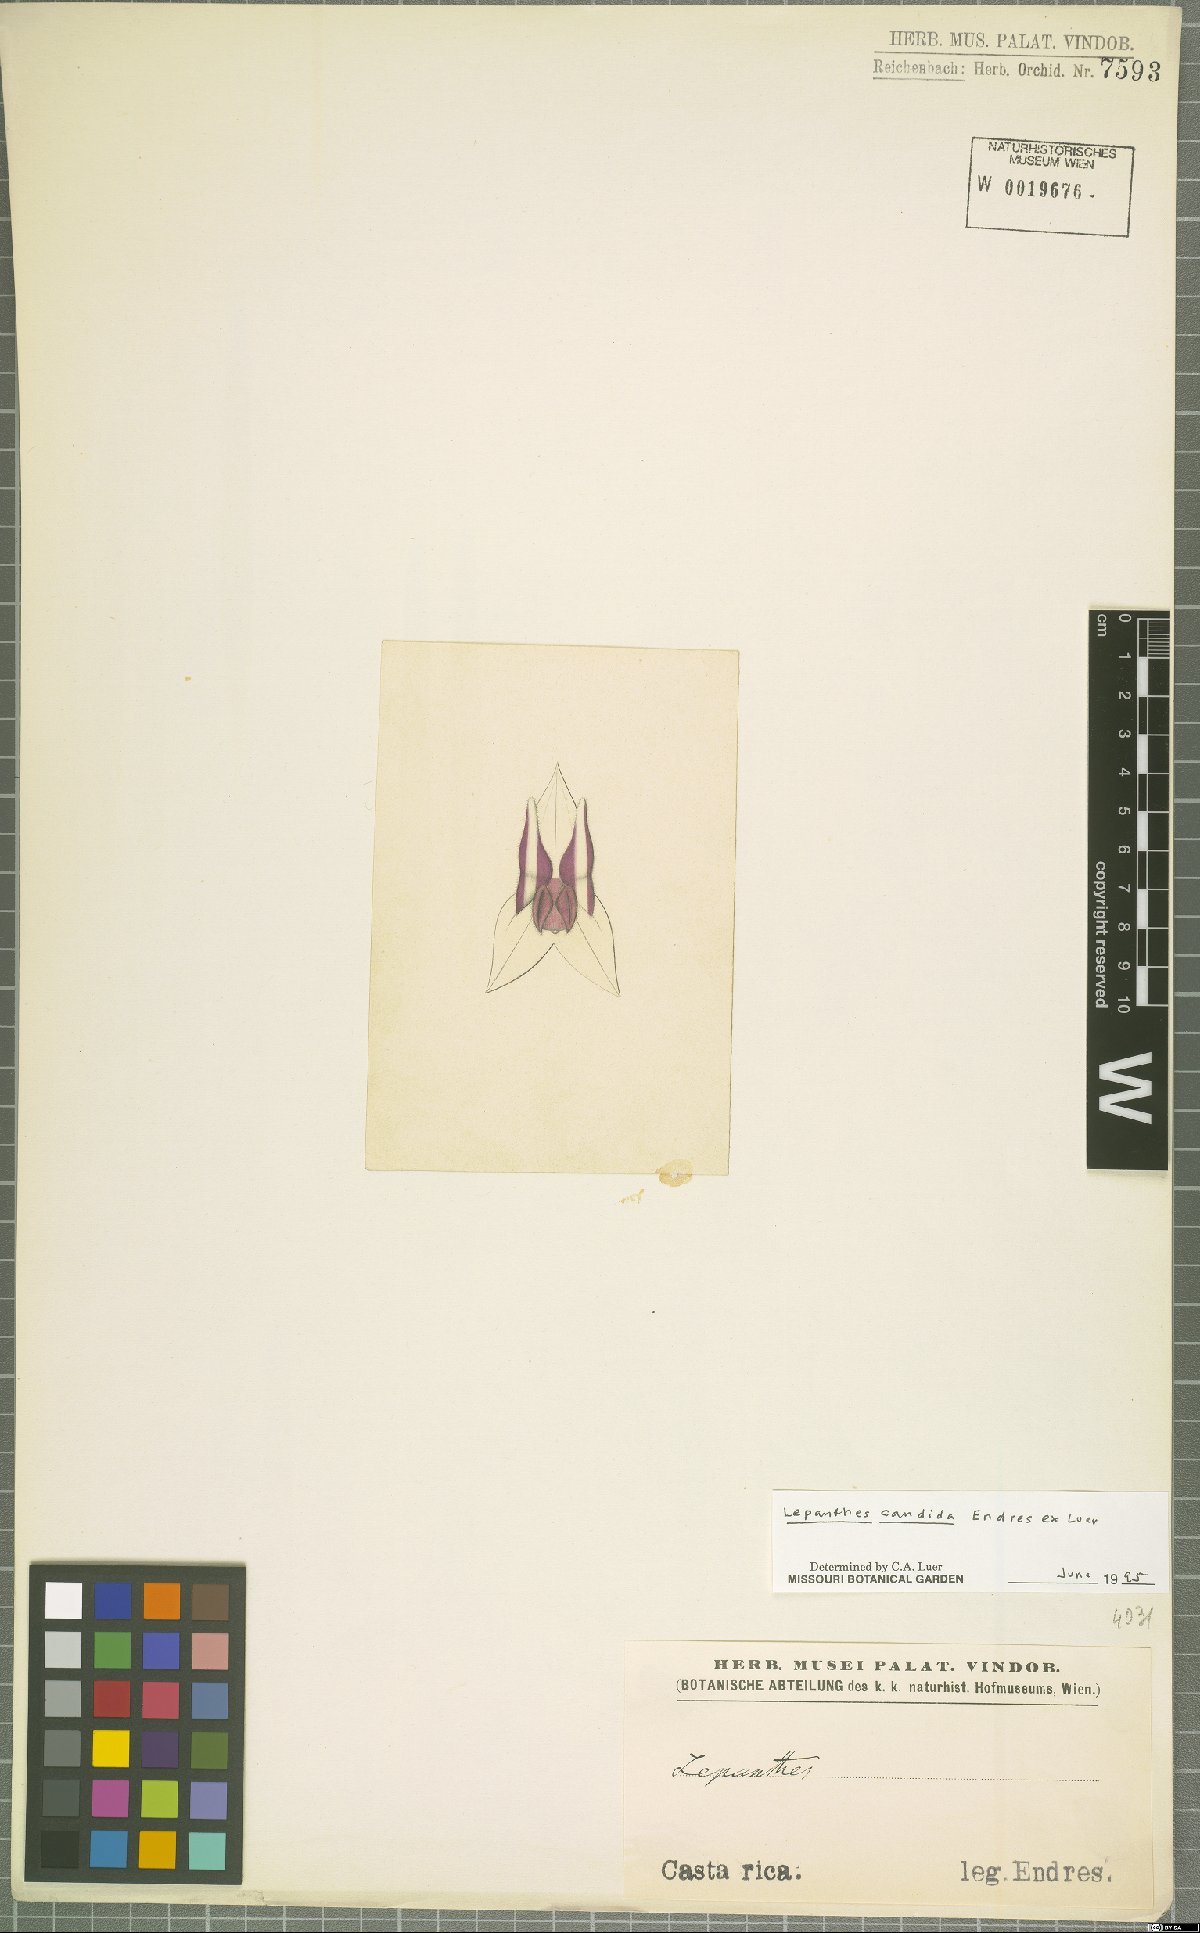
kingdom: Plantae
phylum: Tracheophyta
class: Liliopsida
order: Asparagales
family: Orchidaceae
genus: Lepanthes
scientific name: Lepanthes candida
